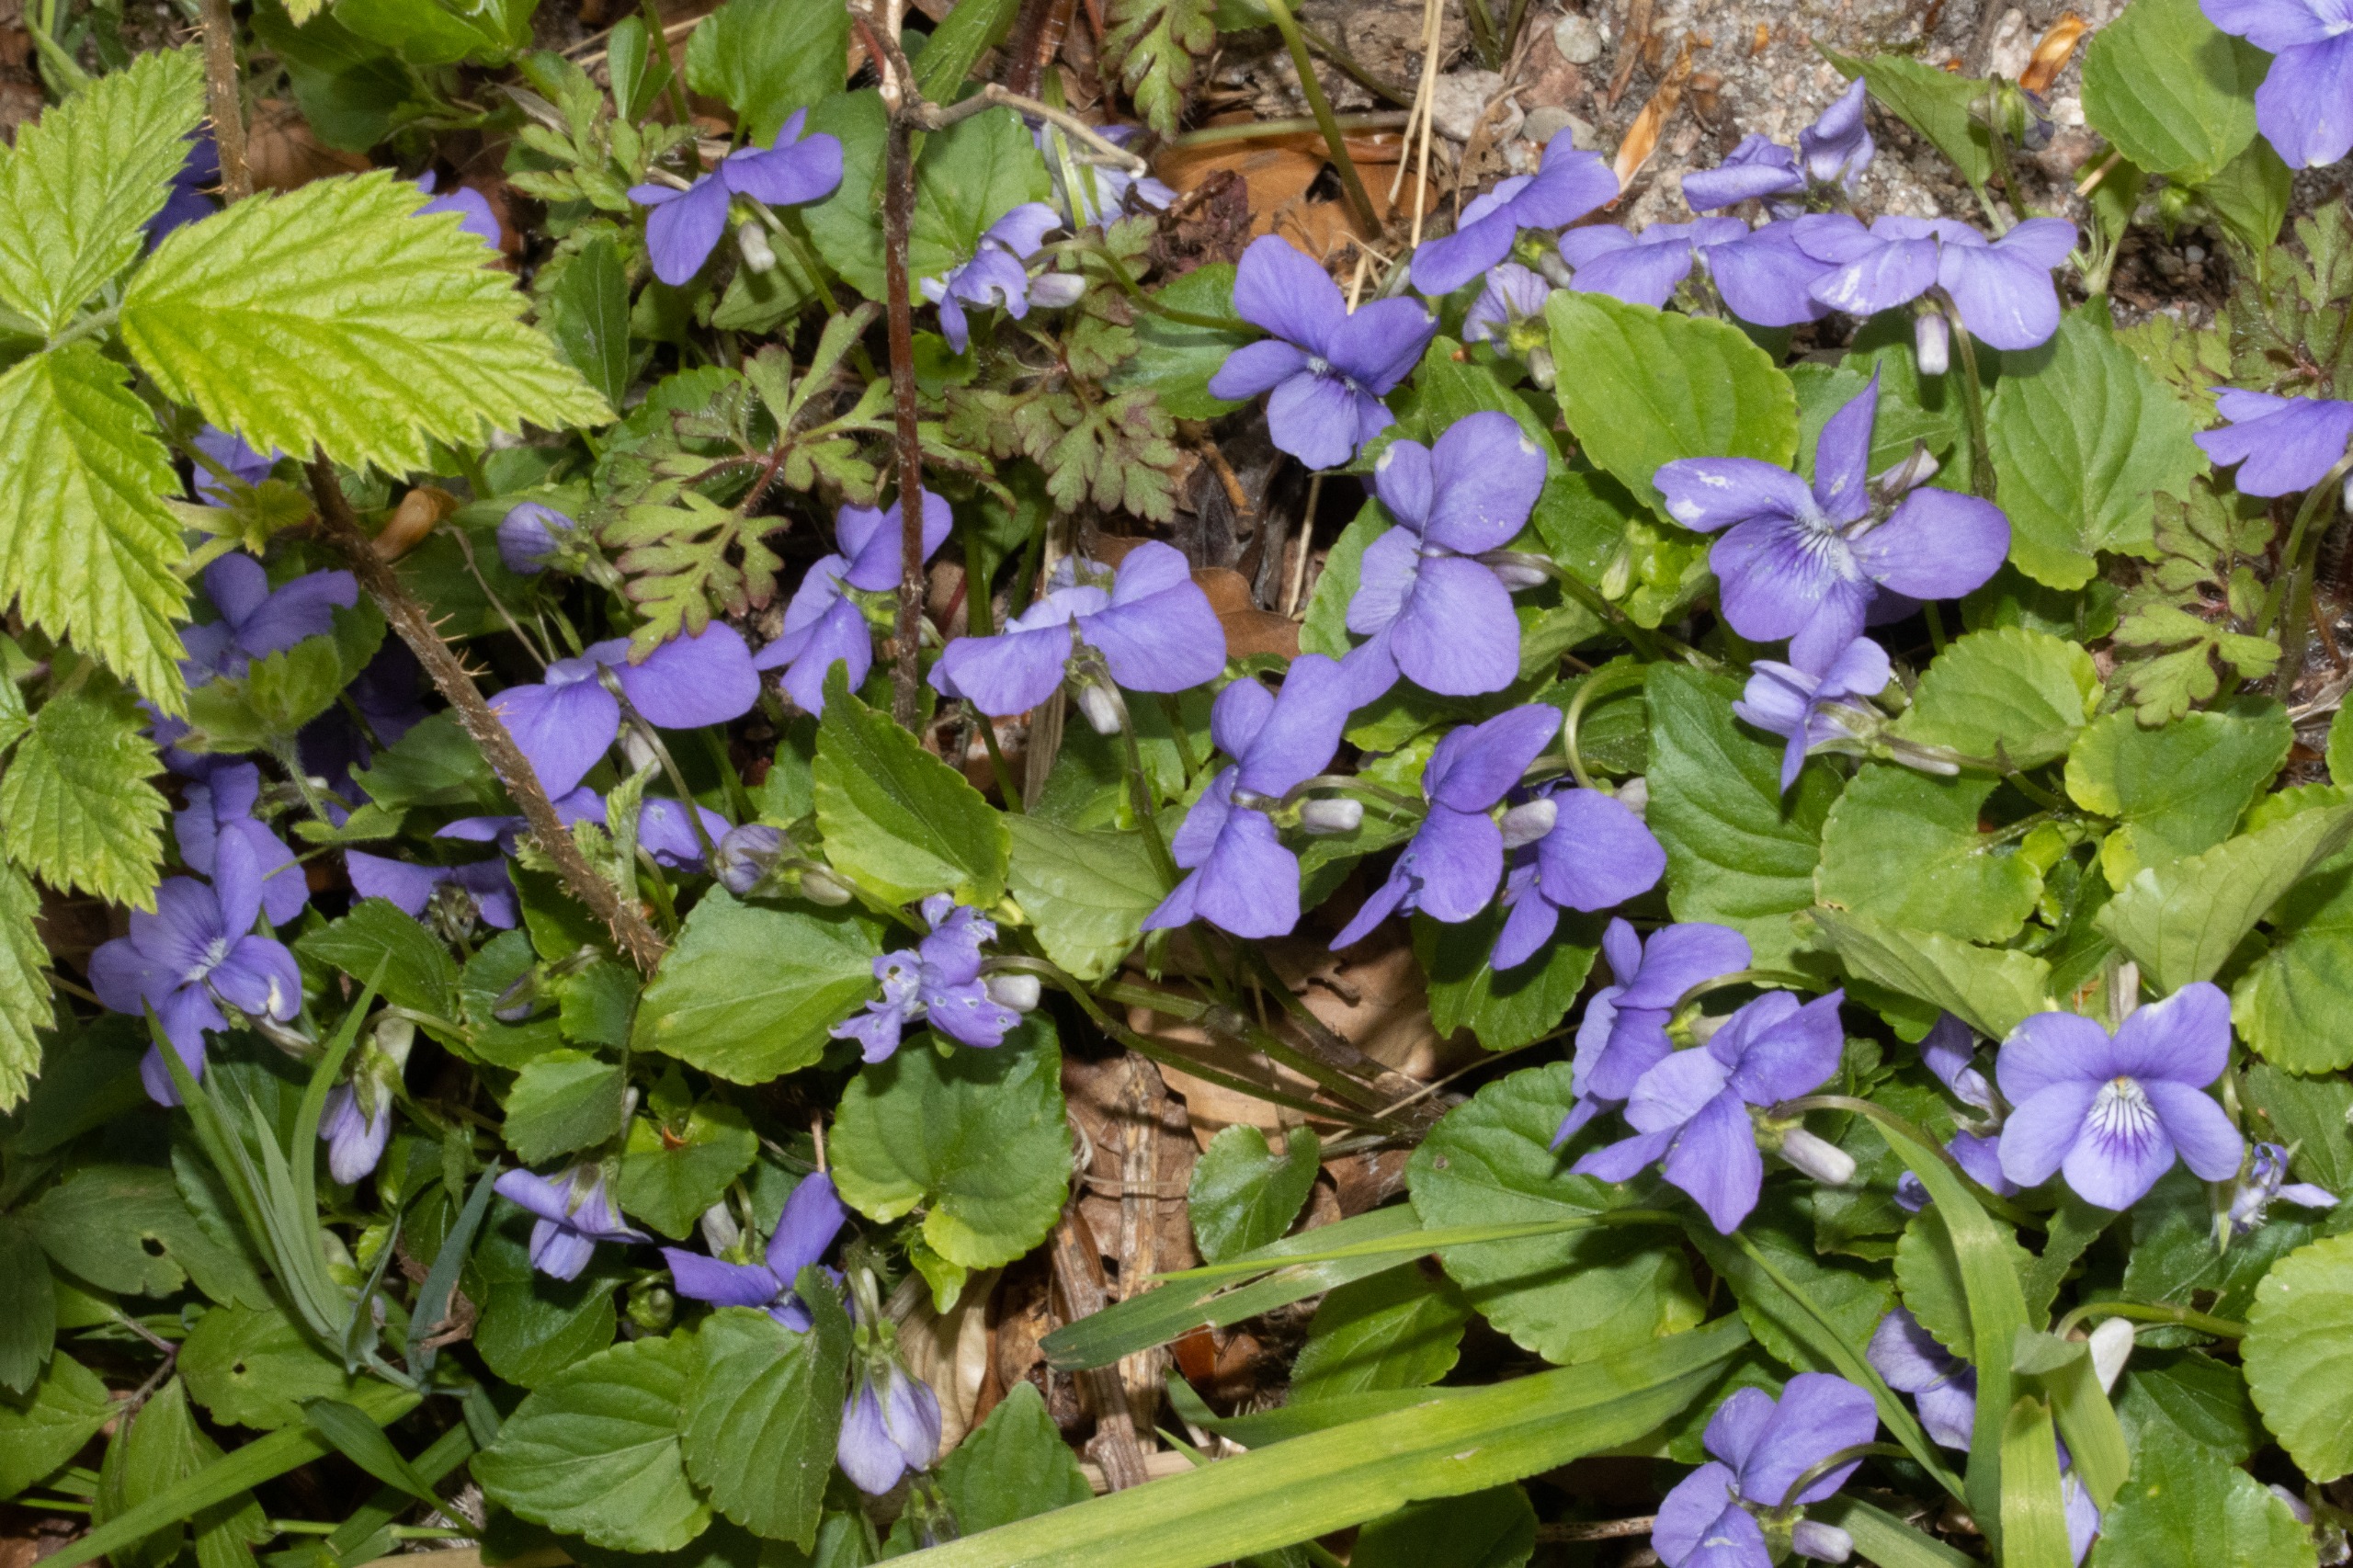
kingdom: Plantae
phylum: Tracheophyta
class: Magnoliopsida
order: Malpighiales
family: Violaceae
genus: Viola
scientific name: Viola riviniana
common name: Krat-viol
